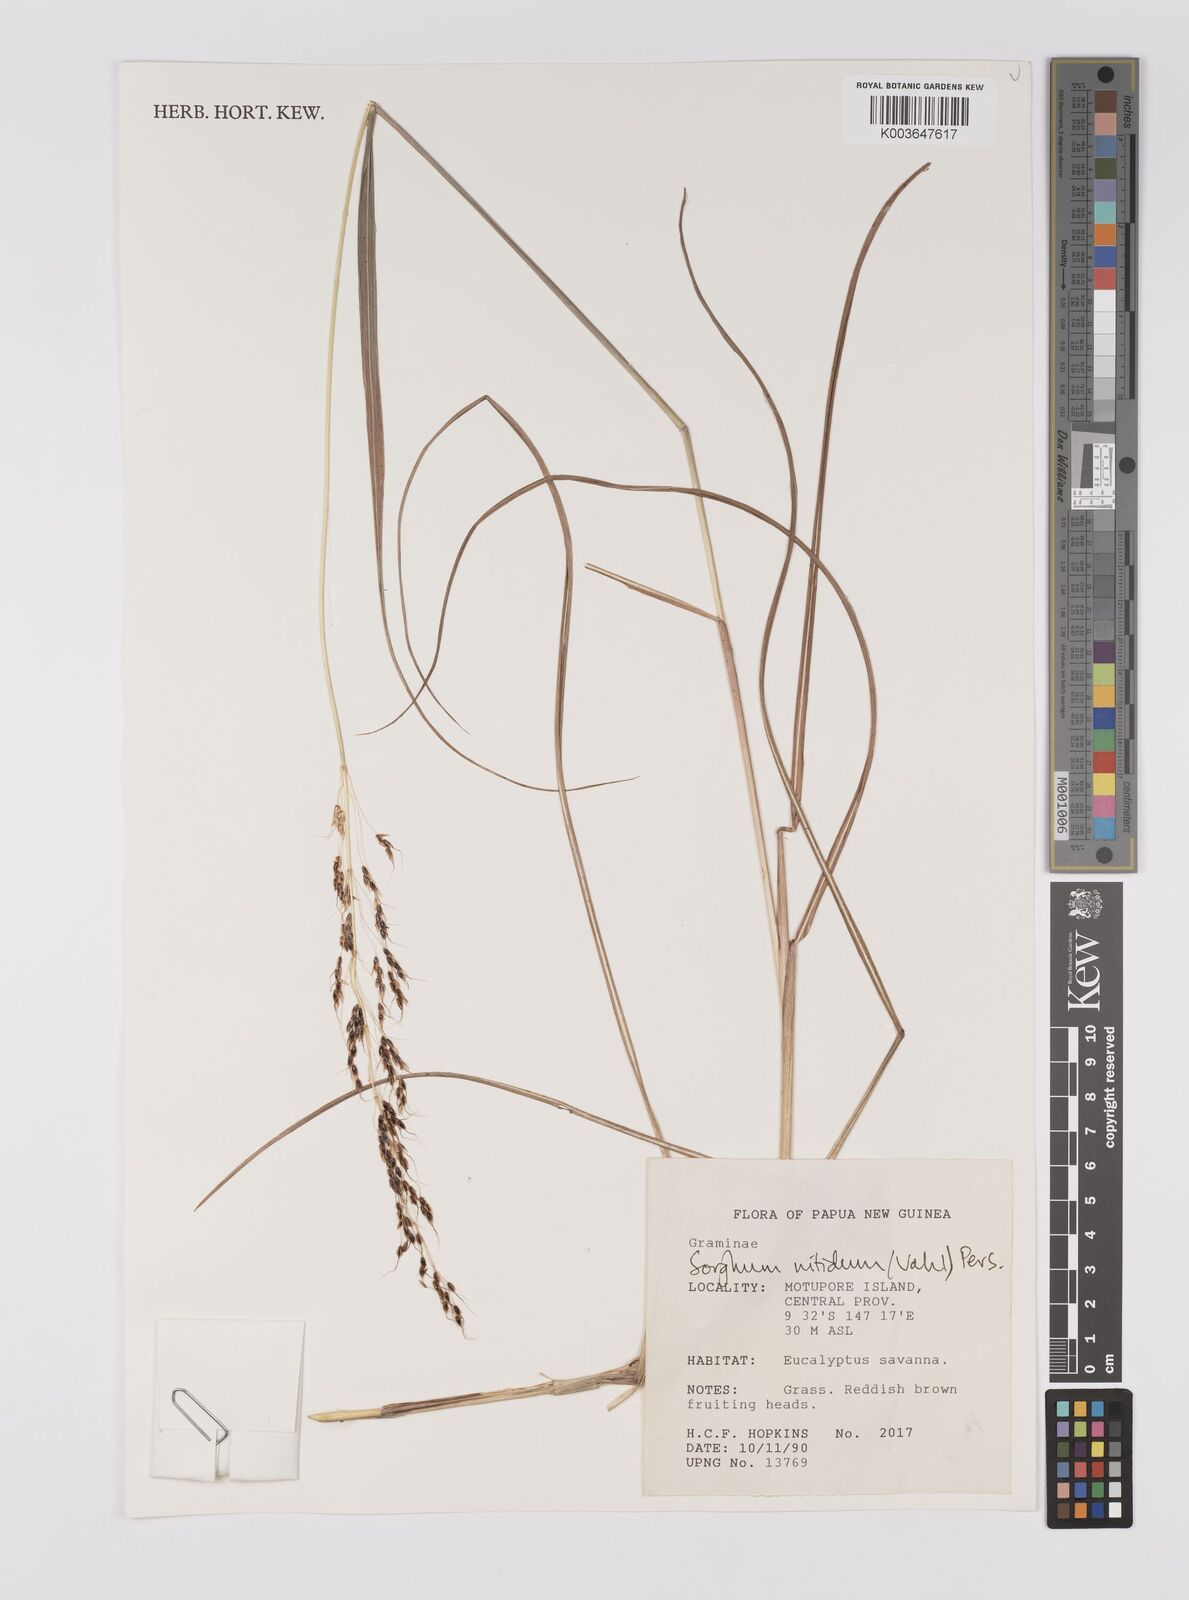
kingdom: Plantae
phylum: Tracheophyta
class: Liliopsida
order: Poales
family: Poaceae
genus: Sorghum
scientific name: Sorghum nitidum
